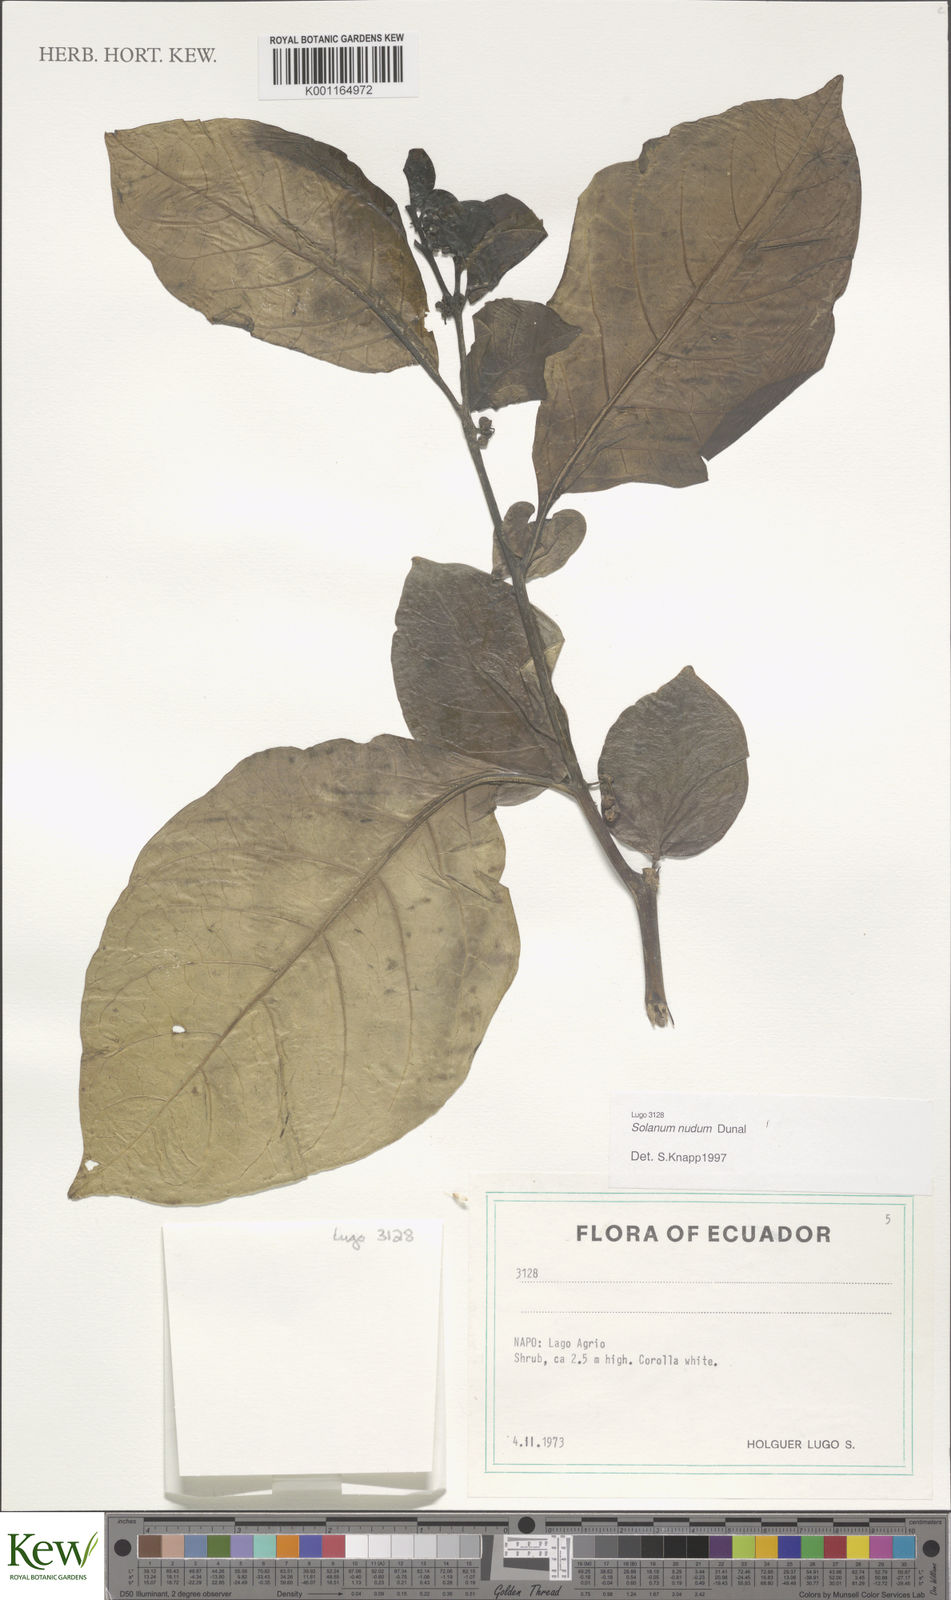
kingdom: Plantae
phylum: Tracheophyta
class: Magnoliopsida
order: Solanales
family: Solanaceae
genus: Solanum
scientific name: Solanum nudum
